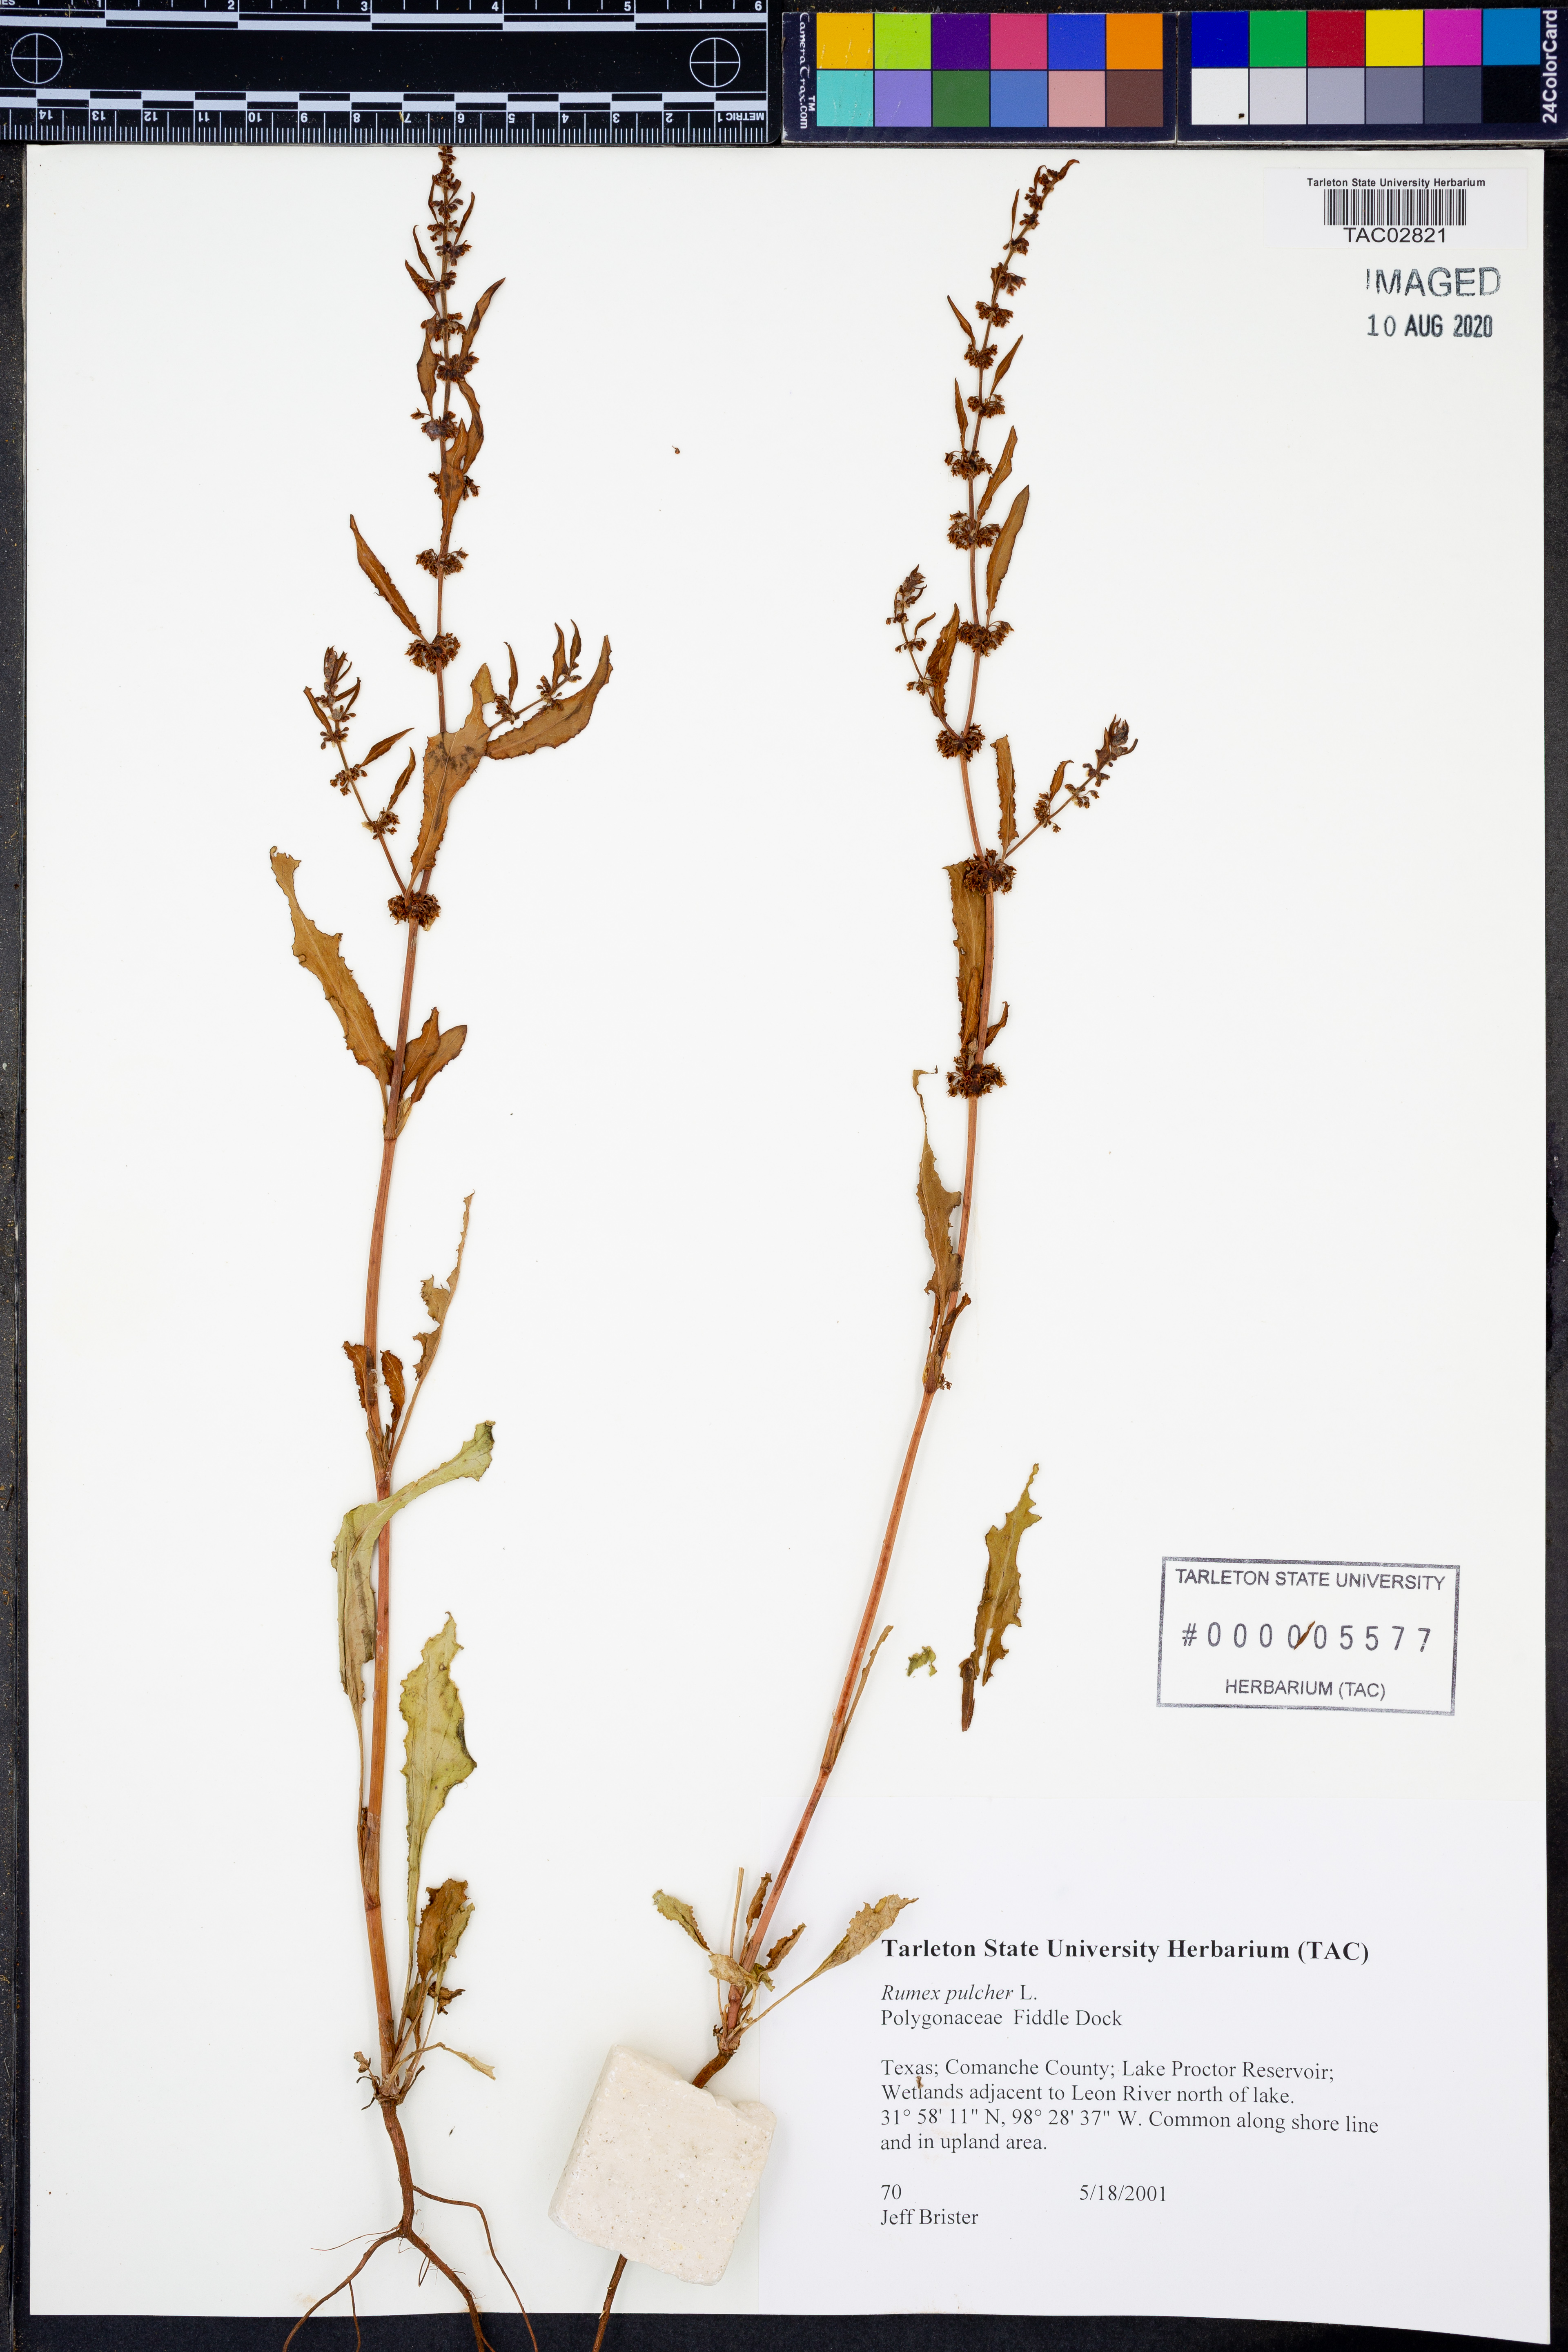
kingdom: Plantae
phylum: Tracheophyta
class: Magnoliopsida
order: Caryophyllales
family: Polygonaceae
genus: Rumex
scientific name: Rumex pulcher
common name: Fiddle dock
